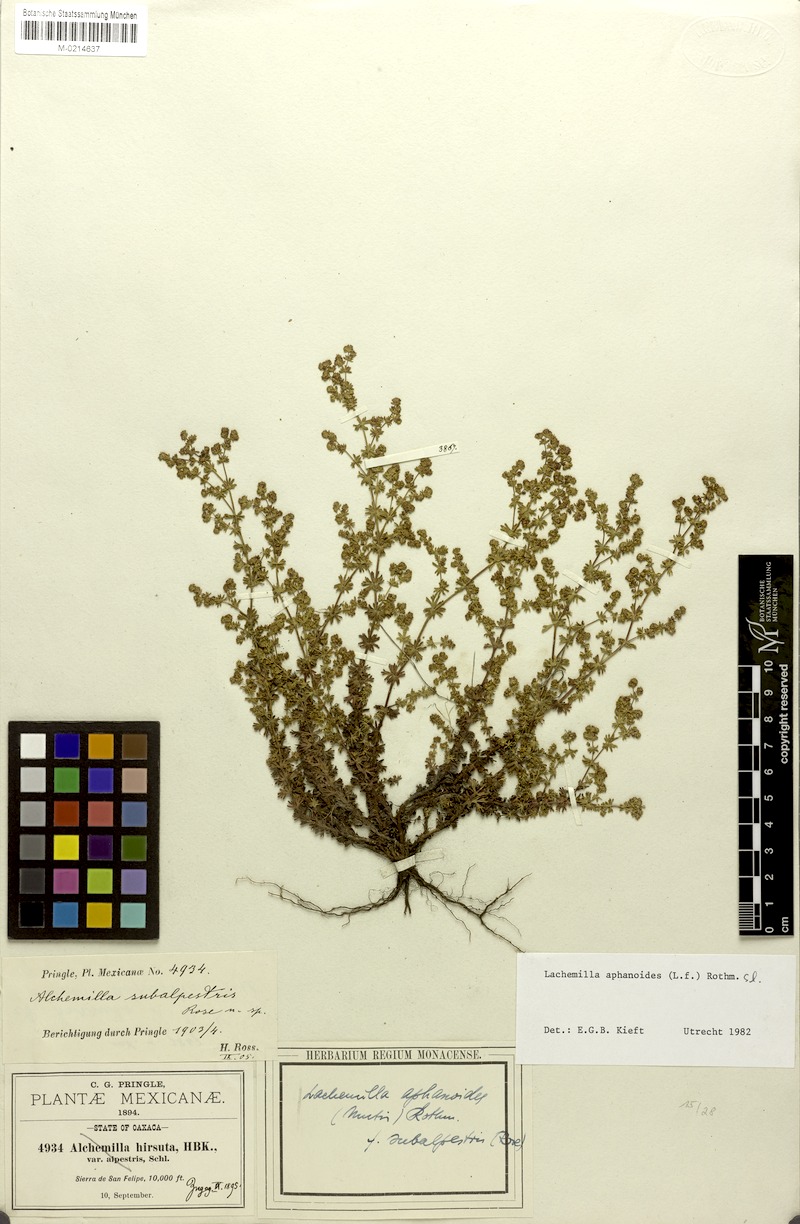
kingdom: Plantae
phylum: Tracheophyta
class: Magnoliopsida
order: Rosales
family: Rosaceae
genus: Lachemilla
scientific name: Lachemilla aphanoides
